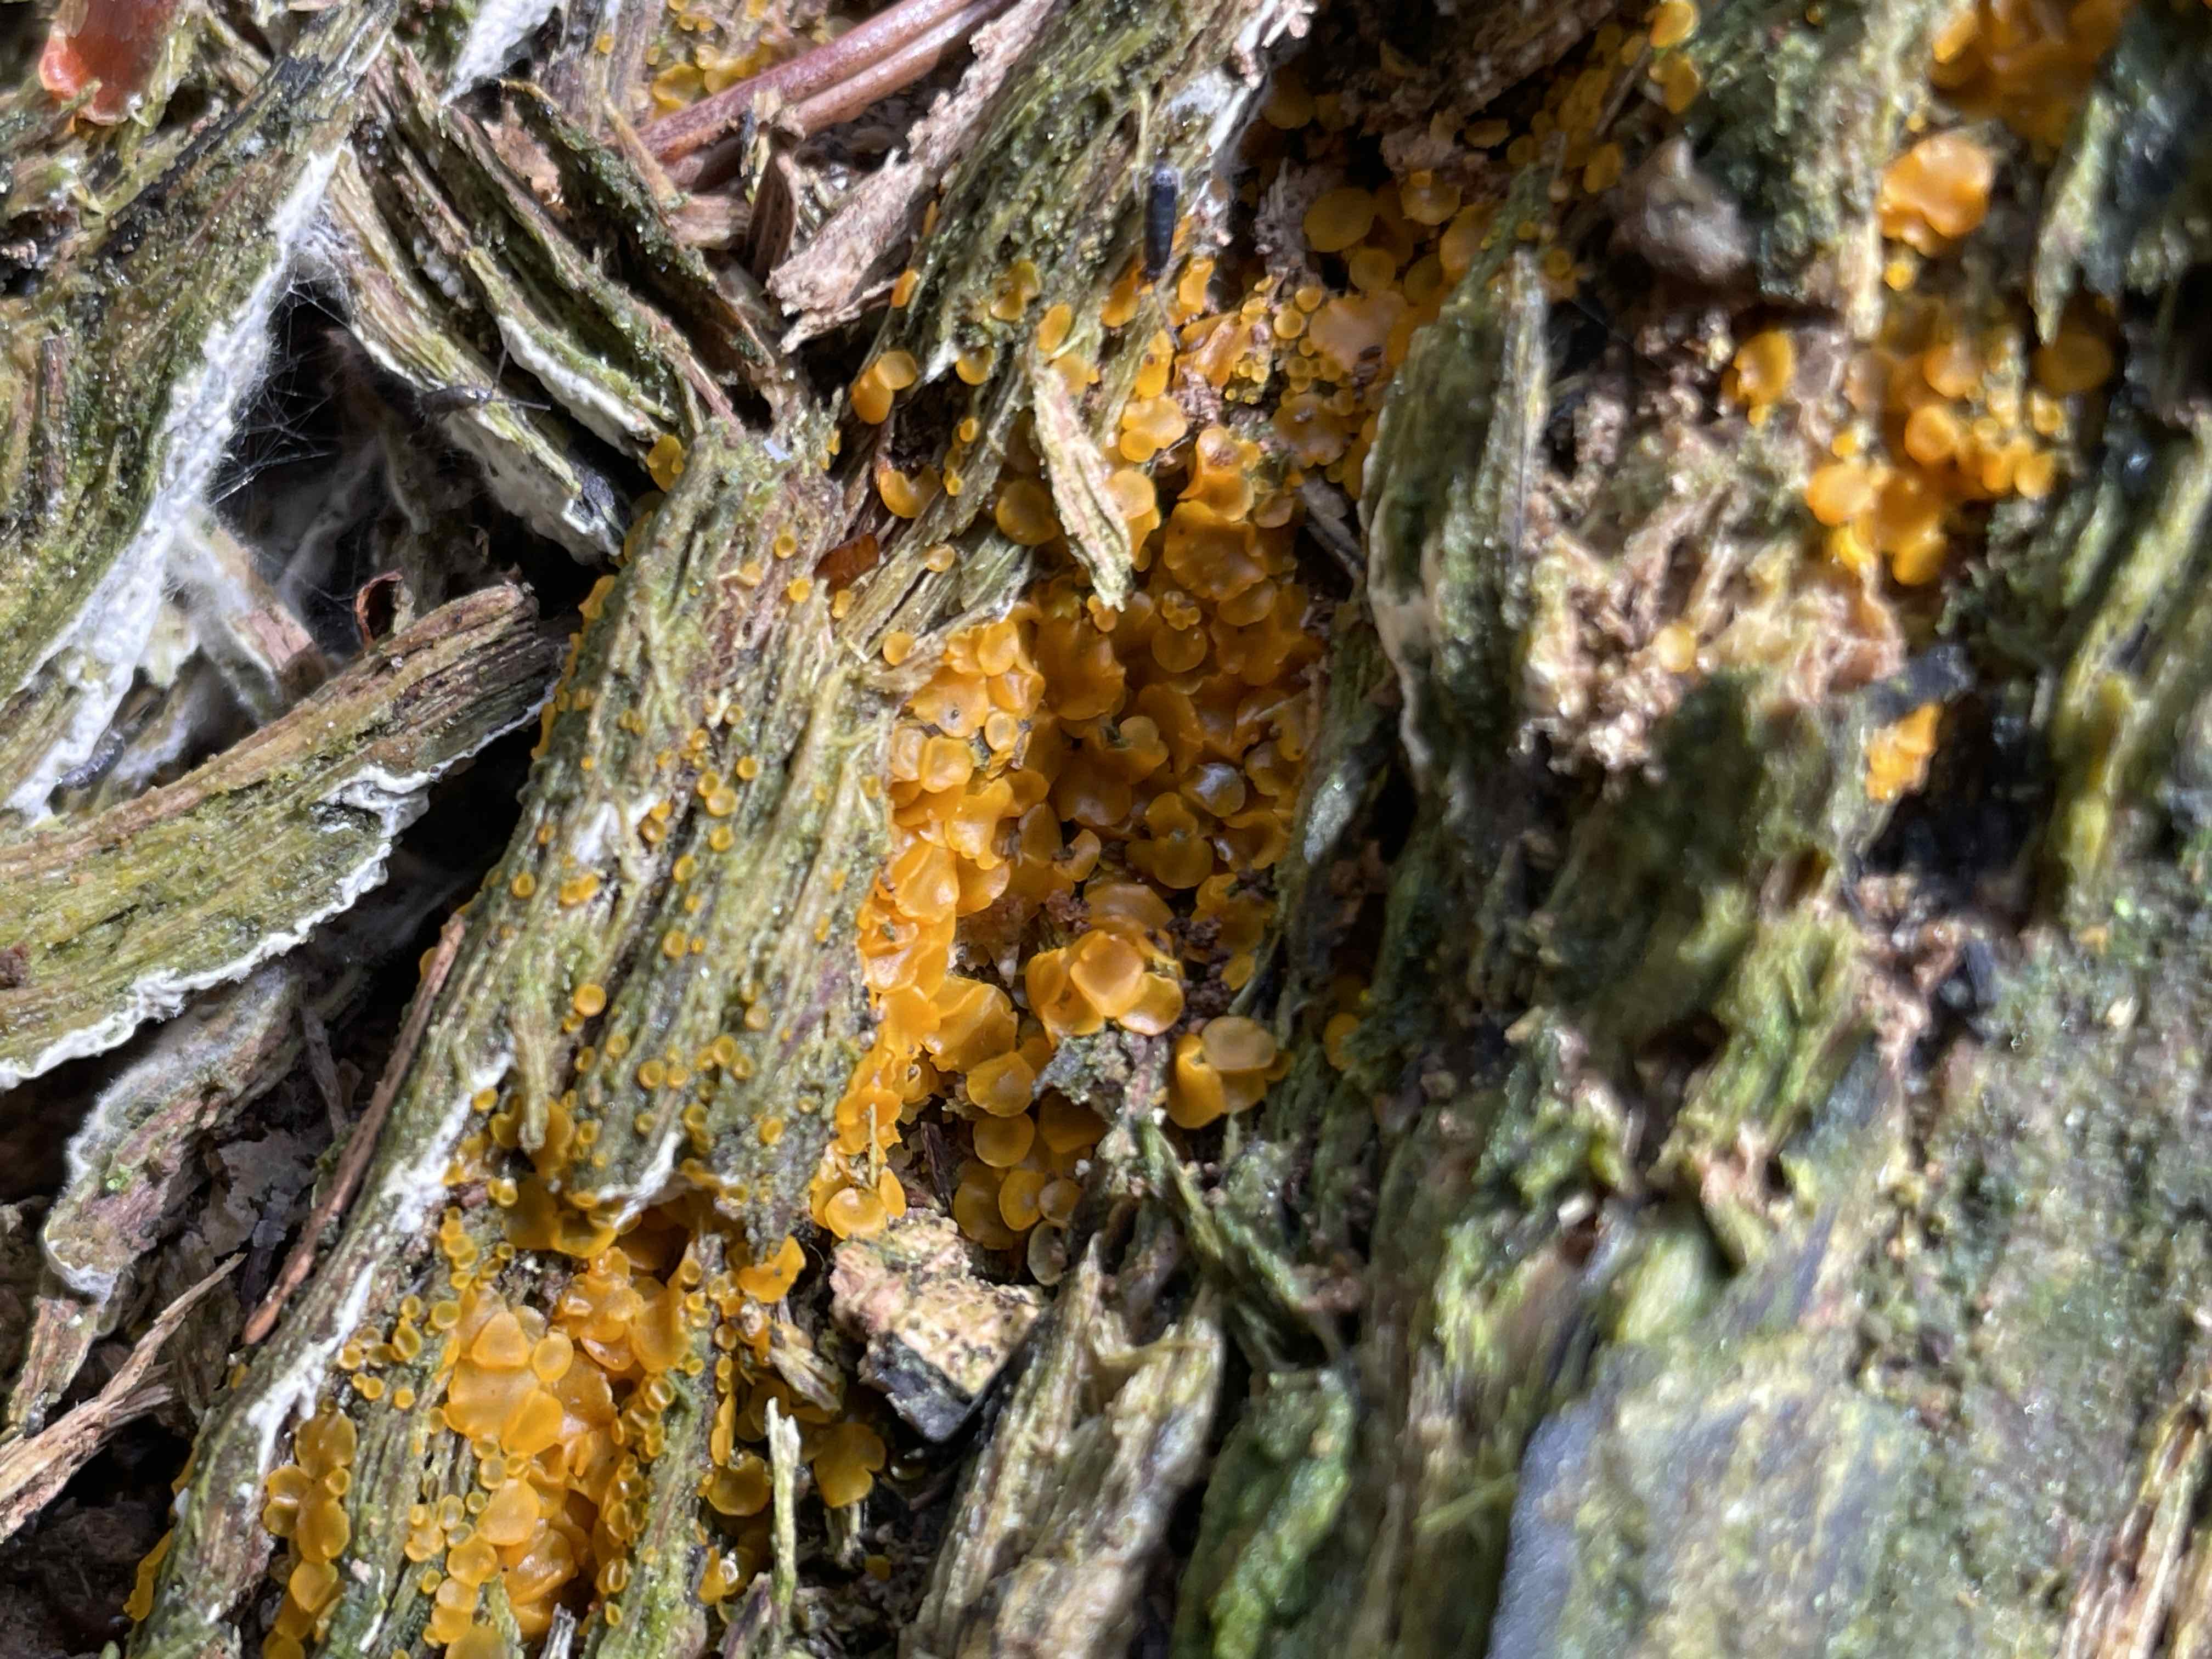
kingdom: Fungi
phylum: Ascomycota
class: Orbiliomycetes
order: Orbiliales
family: Orbiliaceae
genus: Orbilia
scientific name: Orbilia xanthostigma
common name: krumsporet voksskive
